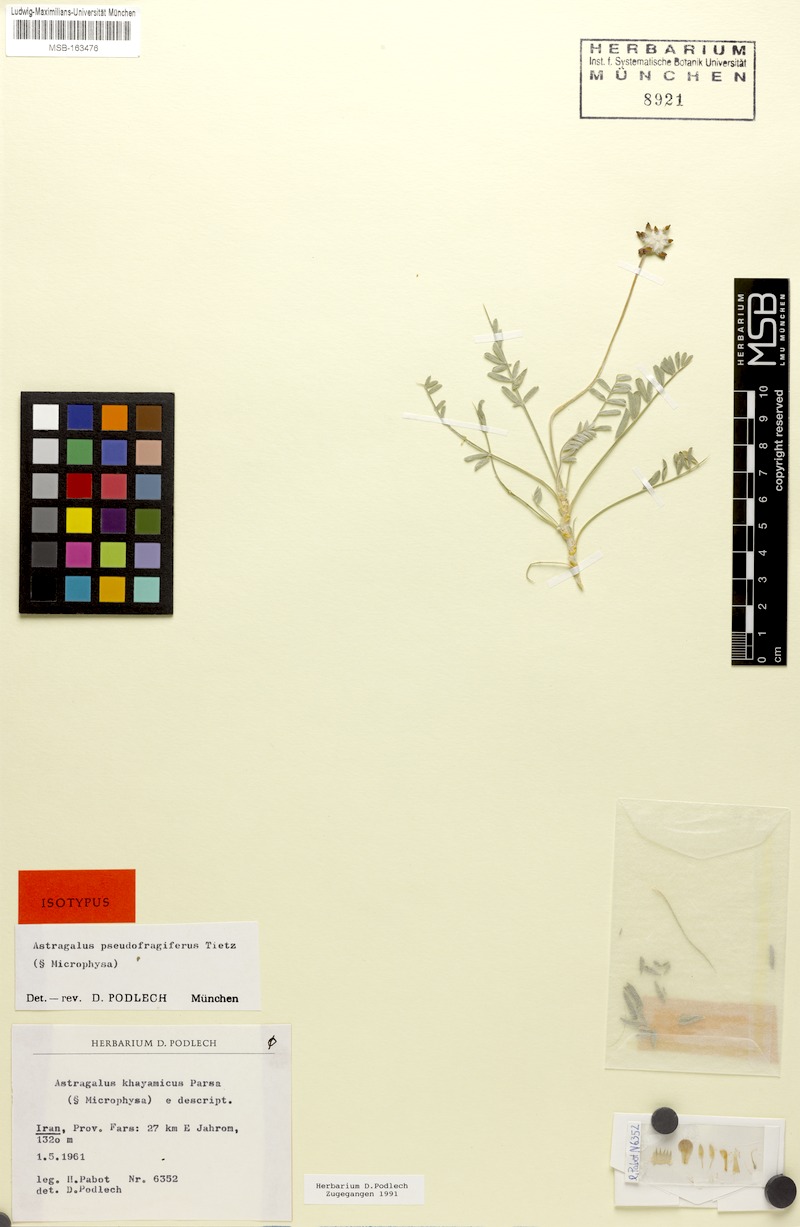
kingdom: Plantae
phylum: Tracheophyta
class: Magnoliopsida
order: Fabales
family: Fabaceae
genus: Astragalus
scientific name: Astragalus pseudofragiferus
